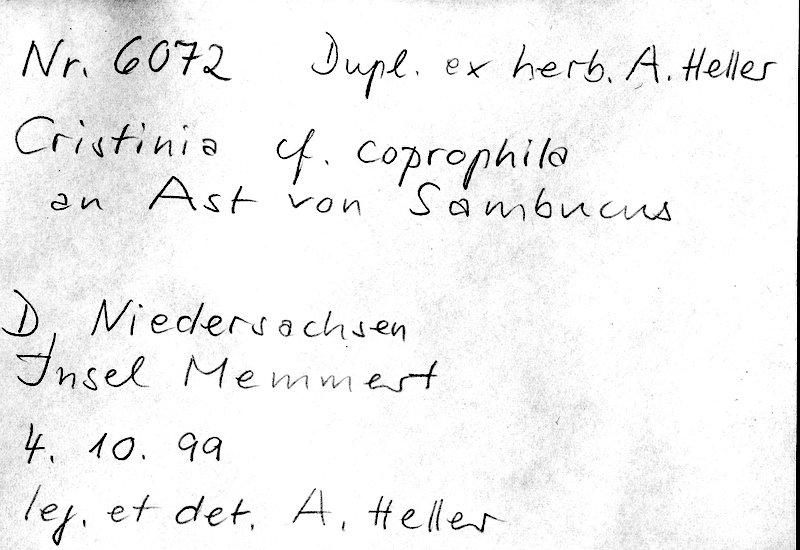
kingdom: Fungi
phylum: Basidiomycota
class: Agaricomycetes
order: Agaricales
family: Stephanosporaceae
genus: Cristinia
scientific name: Cristinia coprophila
